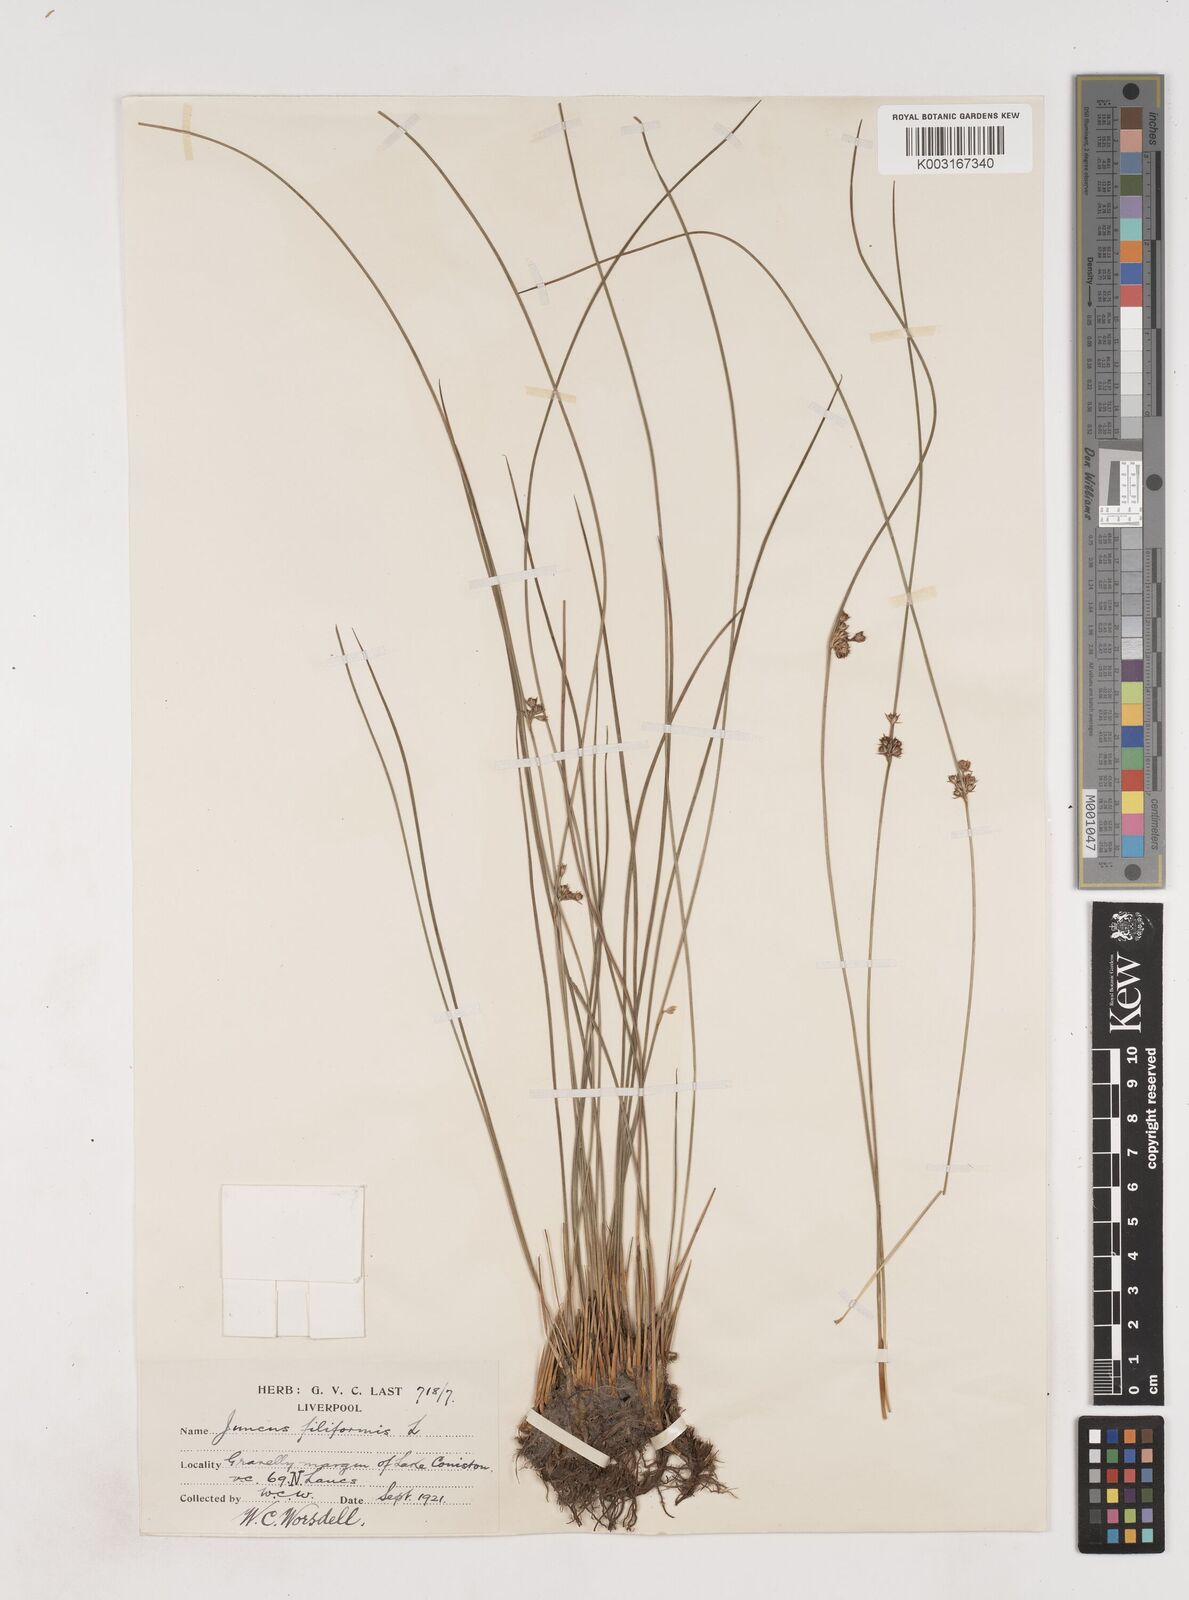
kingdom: Plantae
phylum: Tracheophyta
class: Liliopsida
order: Poales
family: Juncaceae
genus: Juncus
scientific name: Juncus filiformis
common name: Thread rush
